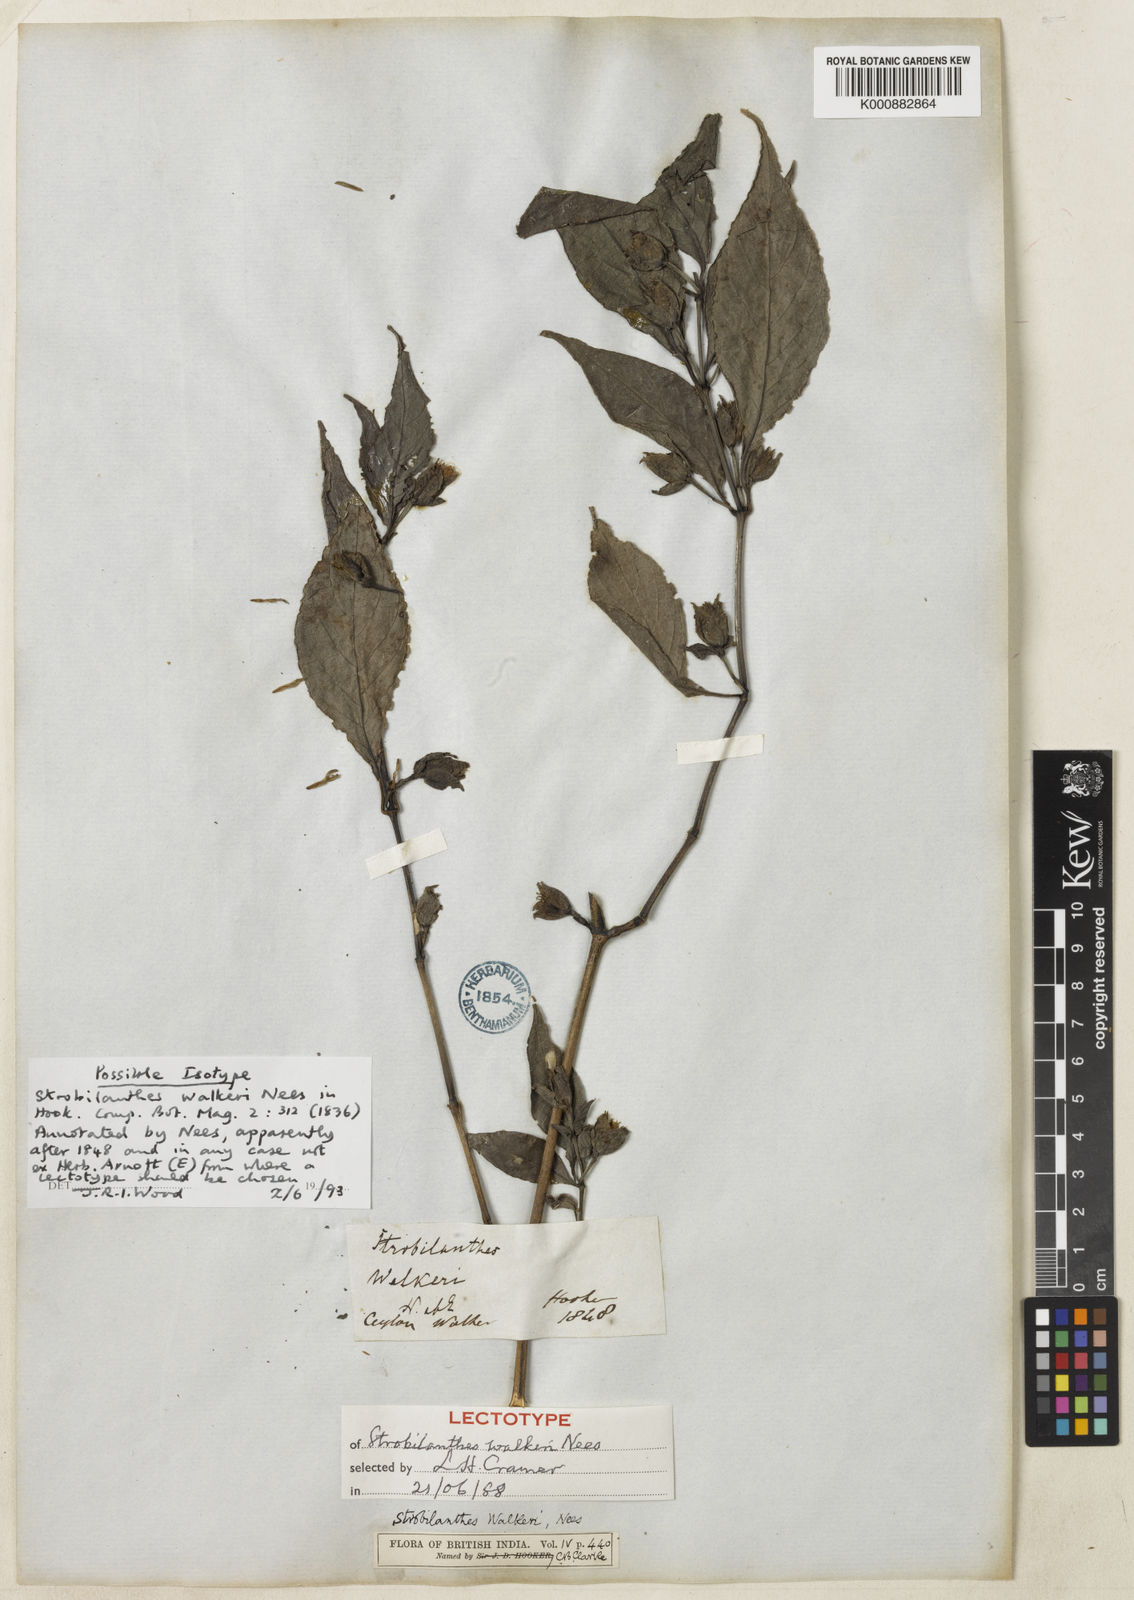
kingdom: Plantae
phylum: Tracheophyta
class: Magnoliopsida
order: Lamiales
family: Acanthaceae
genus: Strobilanthes
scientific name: Strobilanthes walkeri
